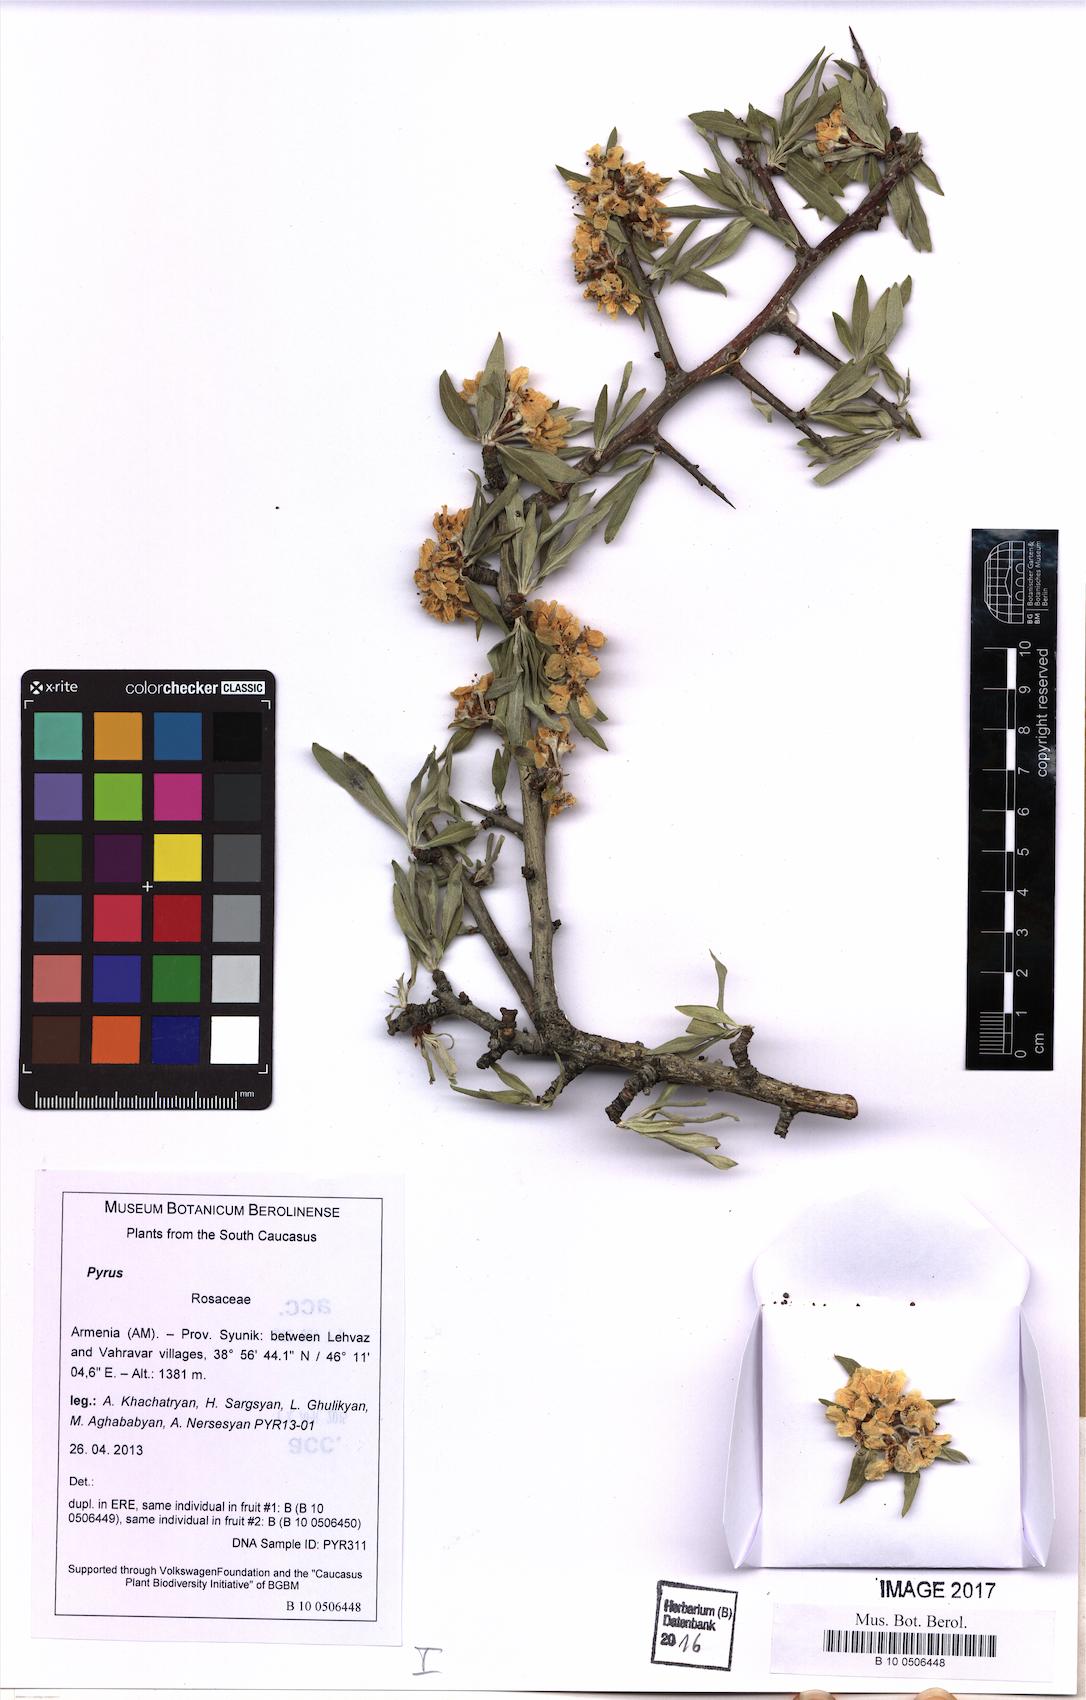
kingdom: Plantae
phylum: Tracheophyta
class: Magnoliopsida
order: Rosales
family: Rosaceae
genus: Pyrus
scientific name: Pyrus
